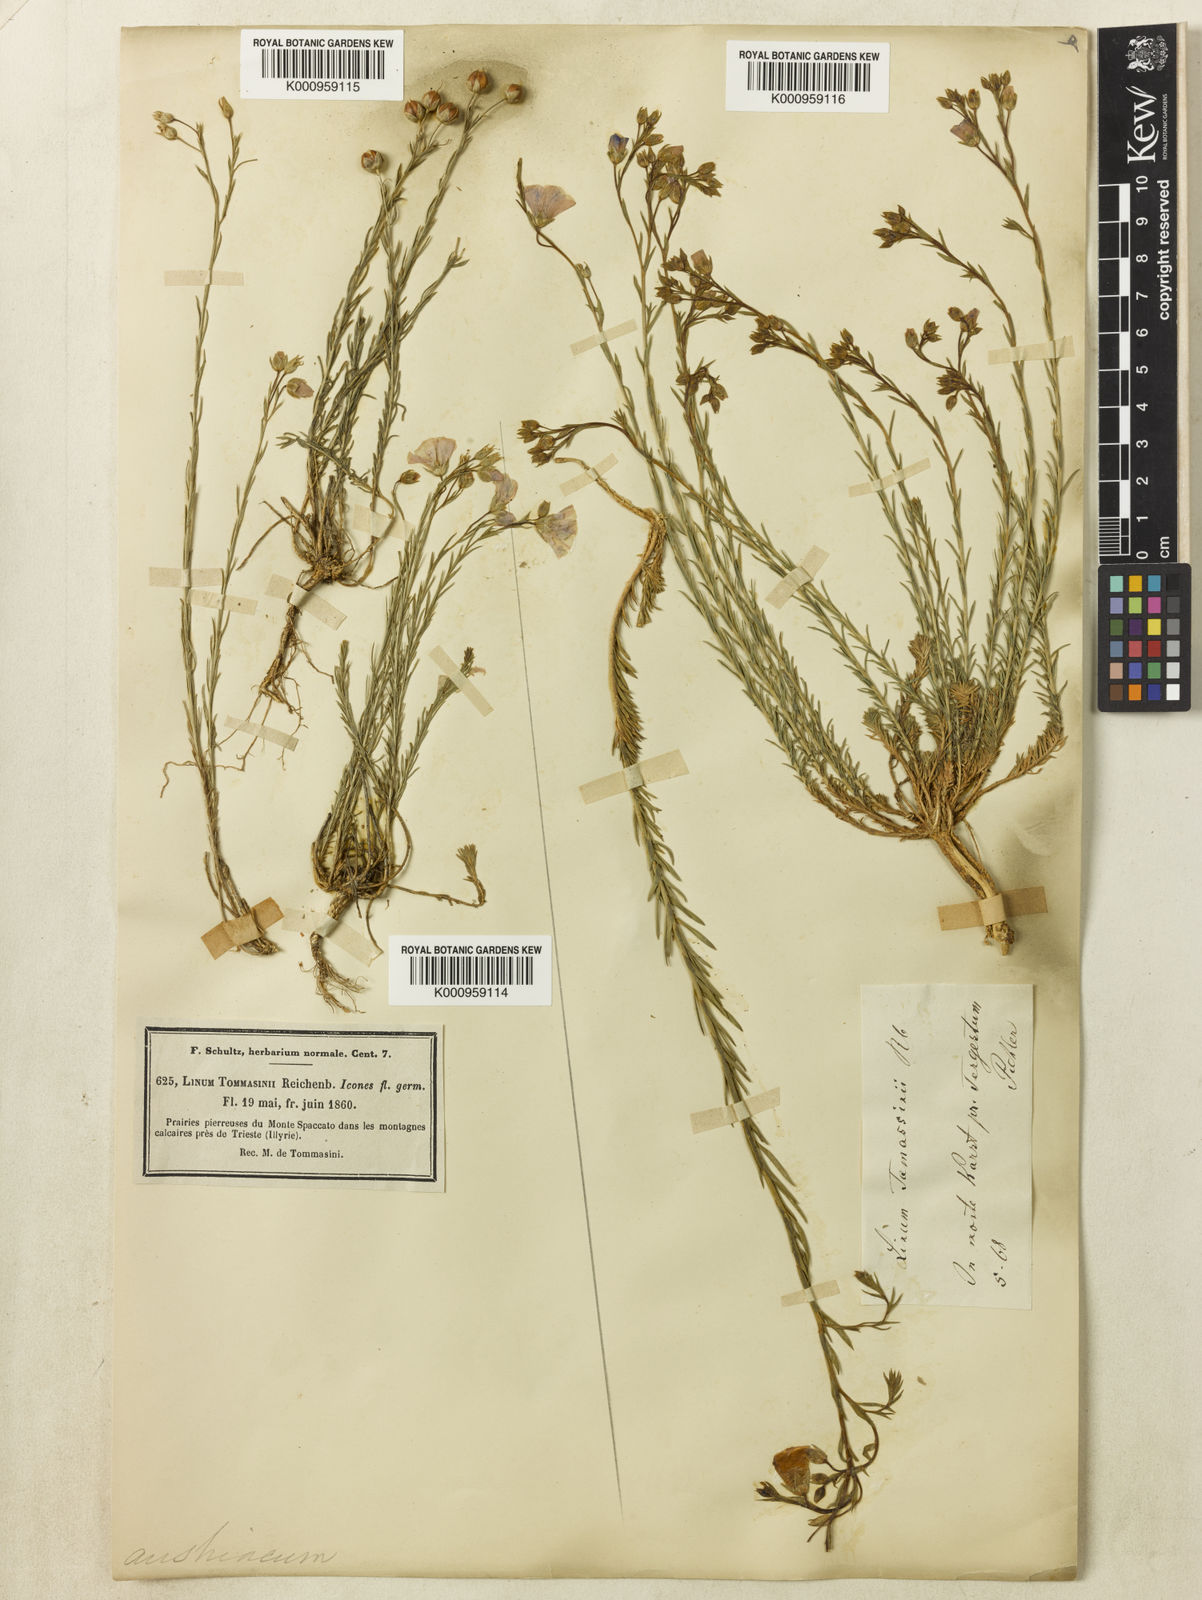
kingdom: Plantae
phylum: Tracheophyta
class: Magnoliopsida
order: Malpighiales
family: Linaceae
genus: Linum
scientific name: Linum austriacum
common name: Austrian flax
